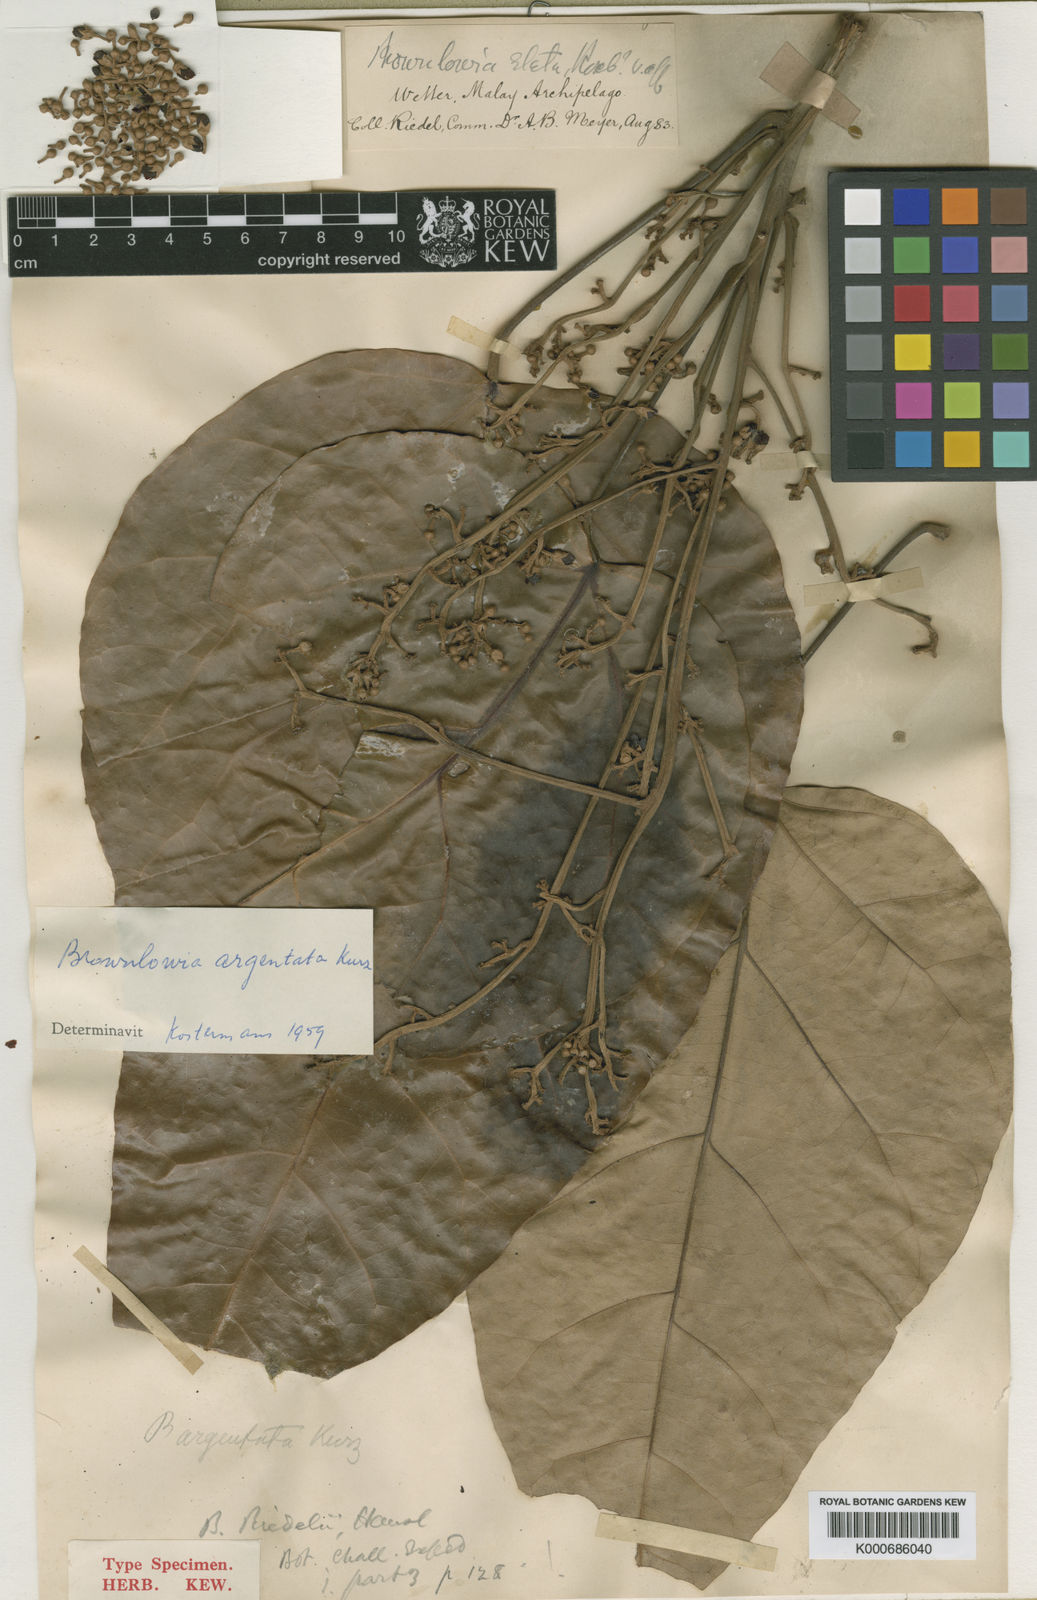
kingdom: Plantae
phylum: Tracheophyta
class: Magnoliopsida
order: Malvales
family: Malvaceae
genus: Brownlowia
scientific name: Brownlowia argentata
